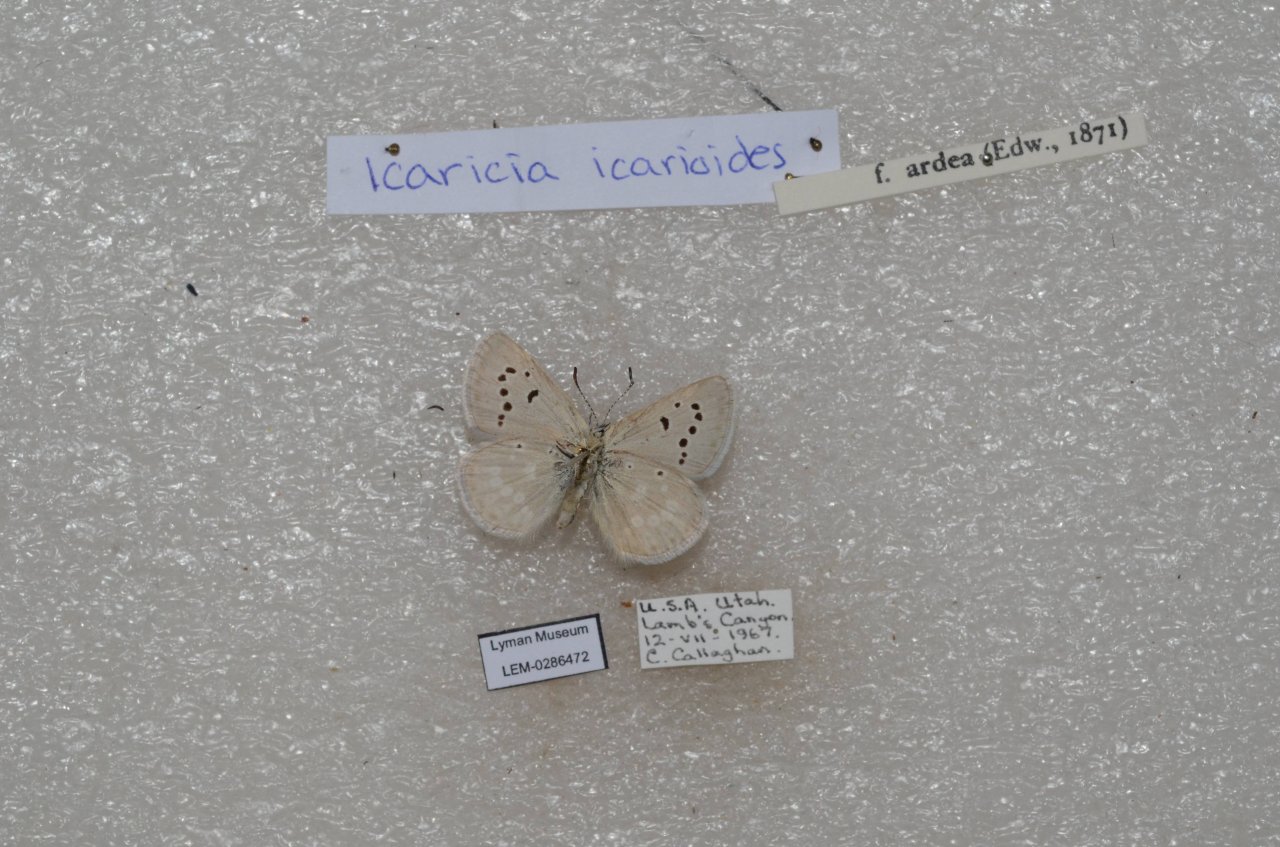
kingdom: Animalia
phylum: Arthropoda
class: Insecta
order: Lepidoptera
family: Lycaenidae
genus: Icaricia
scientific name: Icaricia icarioides
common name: Boisduval's Blue
